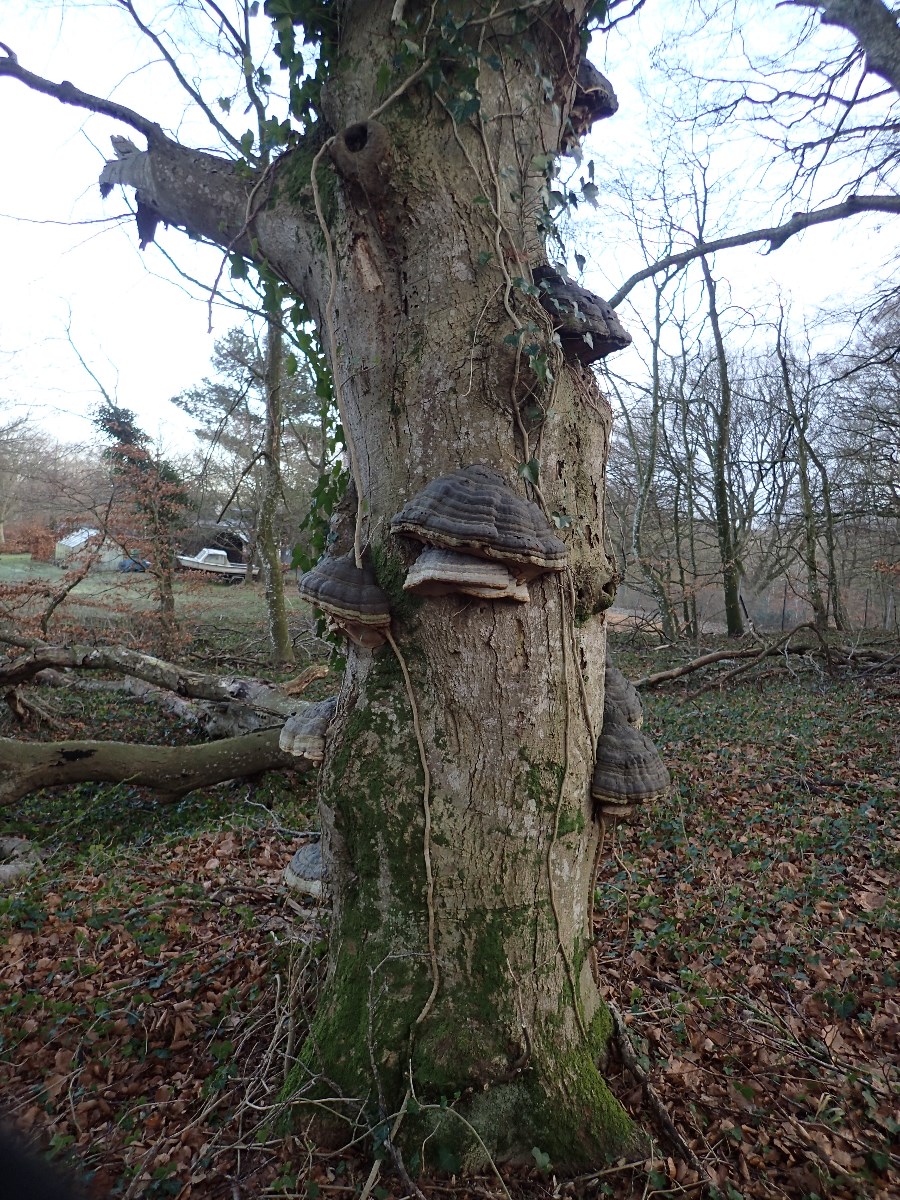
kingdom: Fungi
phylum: Basidiomycota
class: Agaricomycetes
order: Polyporales
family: Polyporaceae
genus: Fomes
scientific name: Fomes fomentarius
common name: tøndersvamp
